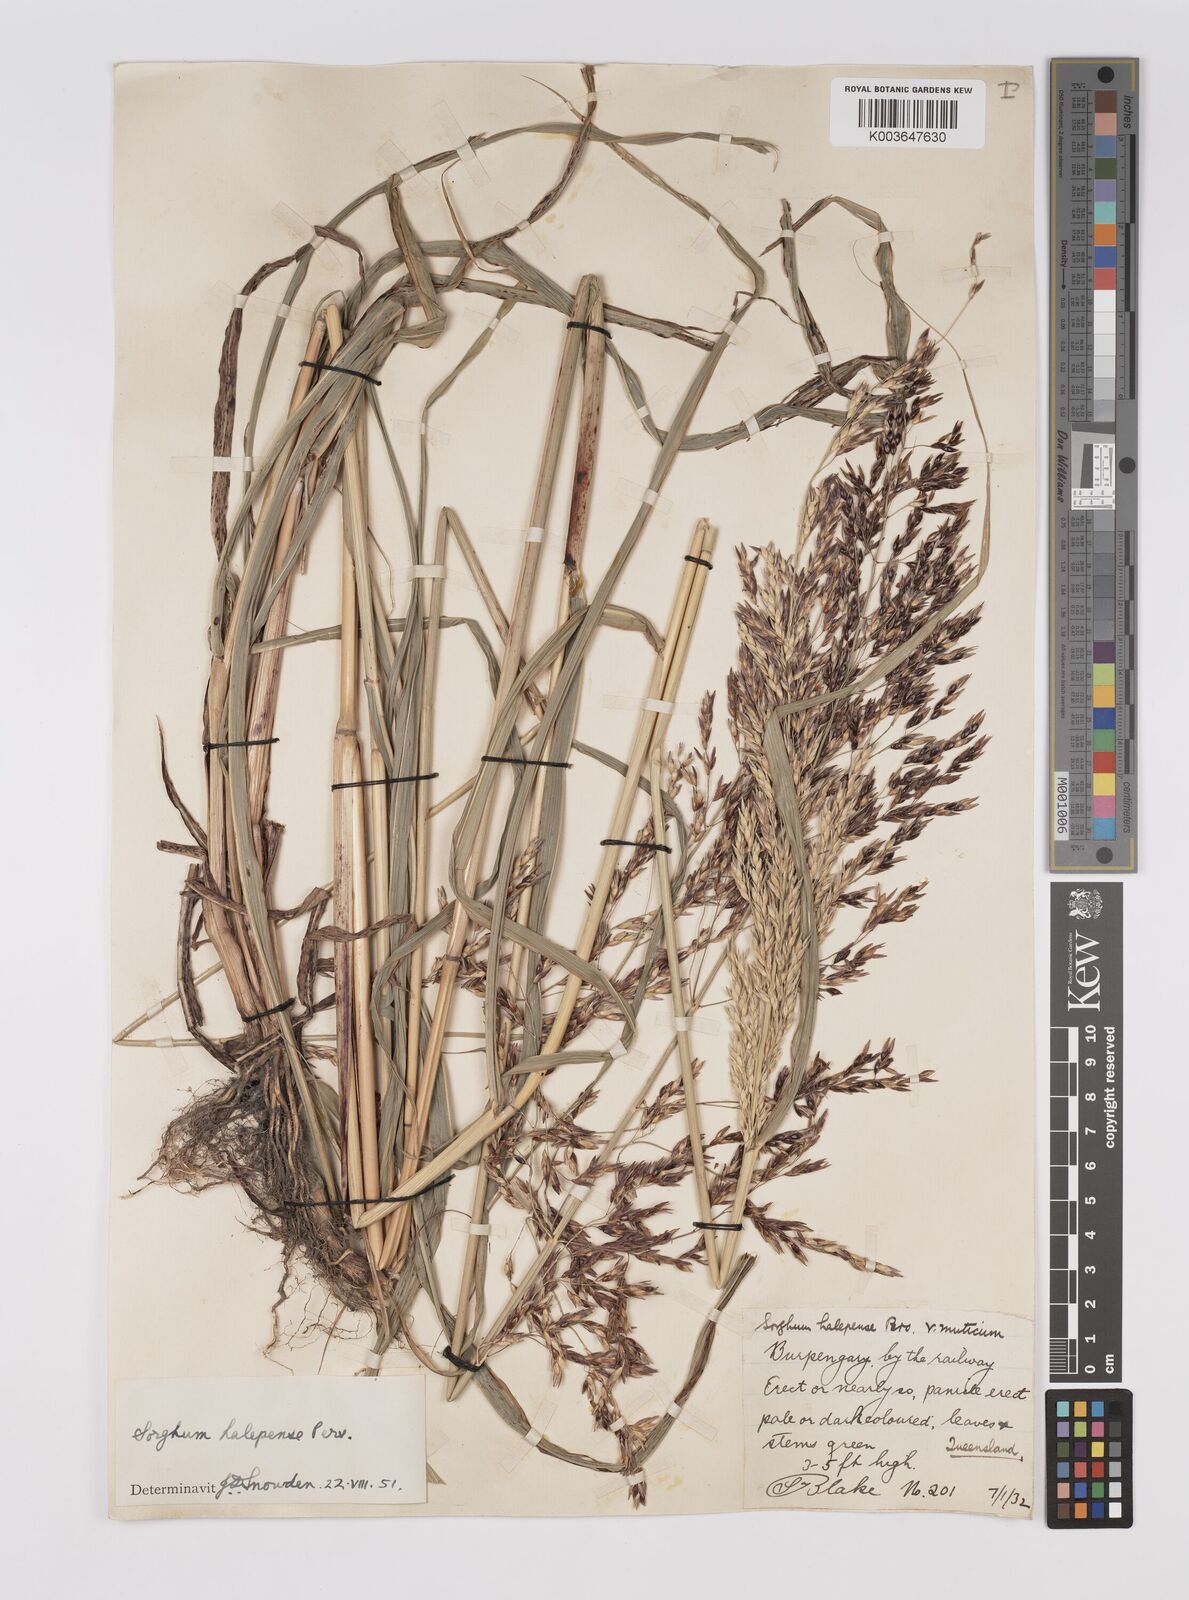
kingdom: Plantae
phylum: Tracheophyta
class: Liliopsida
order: Poales
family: Poaceae
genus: Sorghum
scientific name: Sorghum halepense
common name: Johnson-grass
